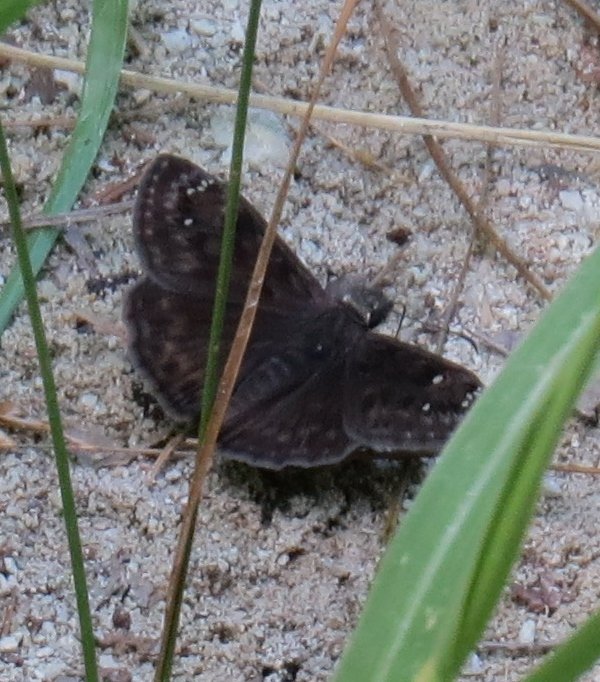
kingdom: Animalia
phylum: Arthropoda
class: Insecta
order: Lepidoptera
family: Hesperiidae
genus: Gesta
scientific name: Gesta
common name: Horace's Duskywing
